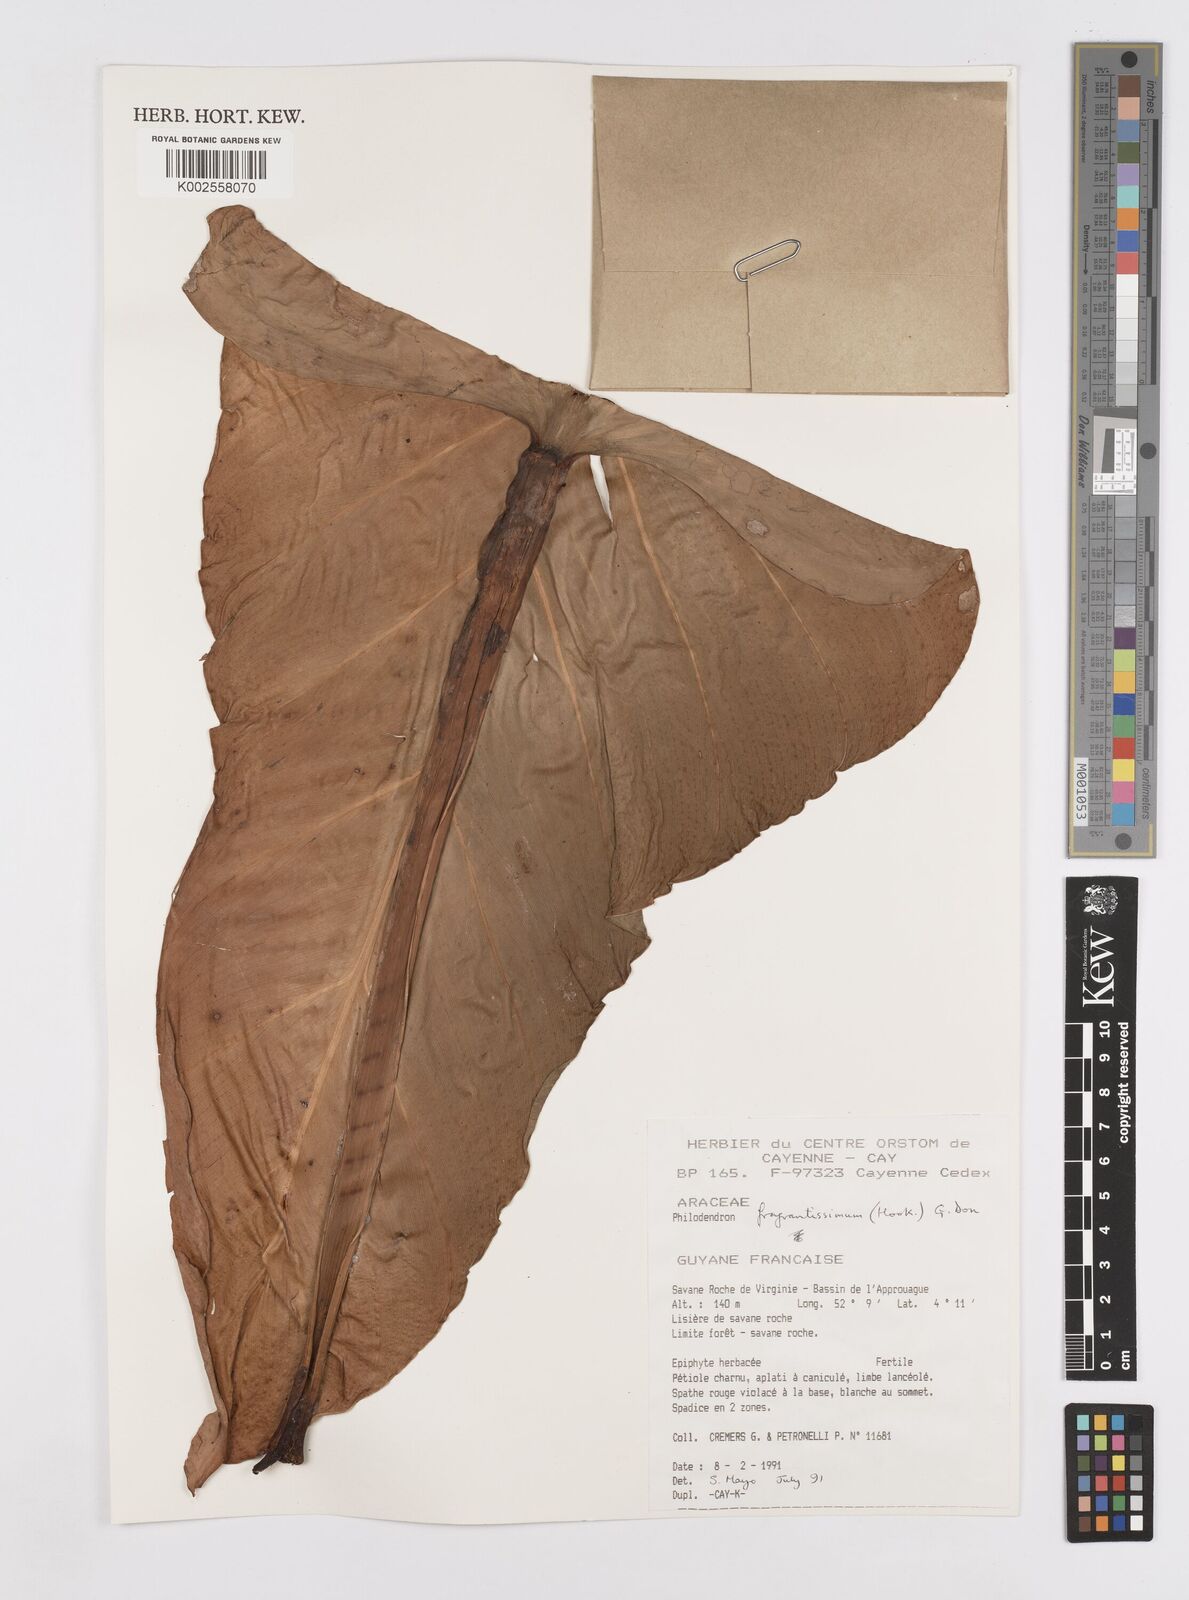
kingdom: Plantae
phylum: Tracheophyta
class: Liliopsida
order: Alismatales
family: Araceae
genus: Philodendron
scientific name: Philodendron fragrantissimum
